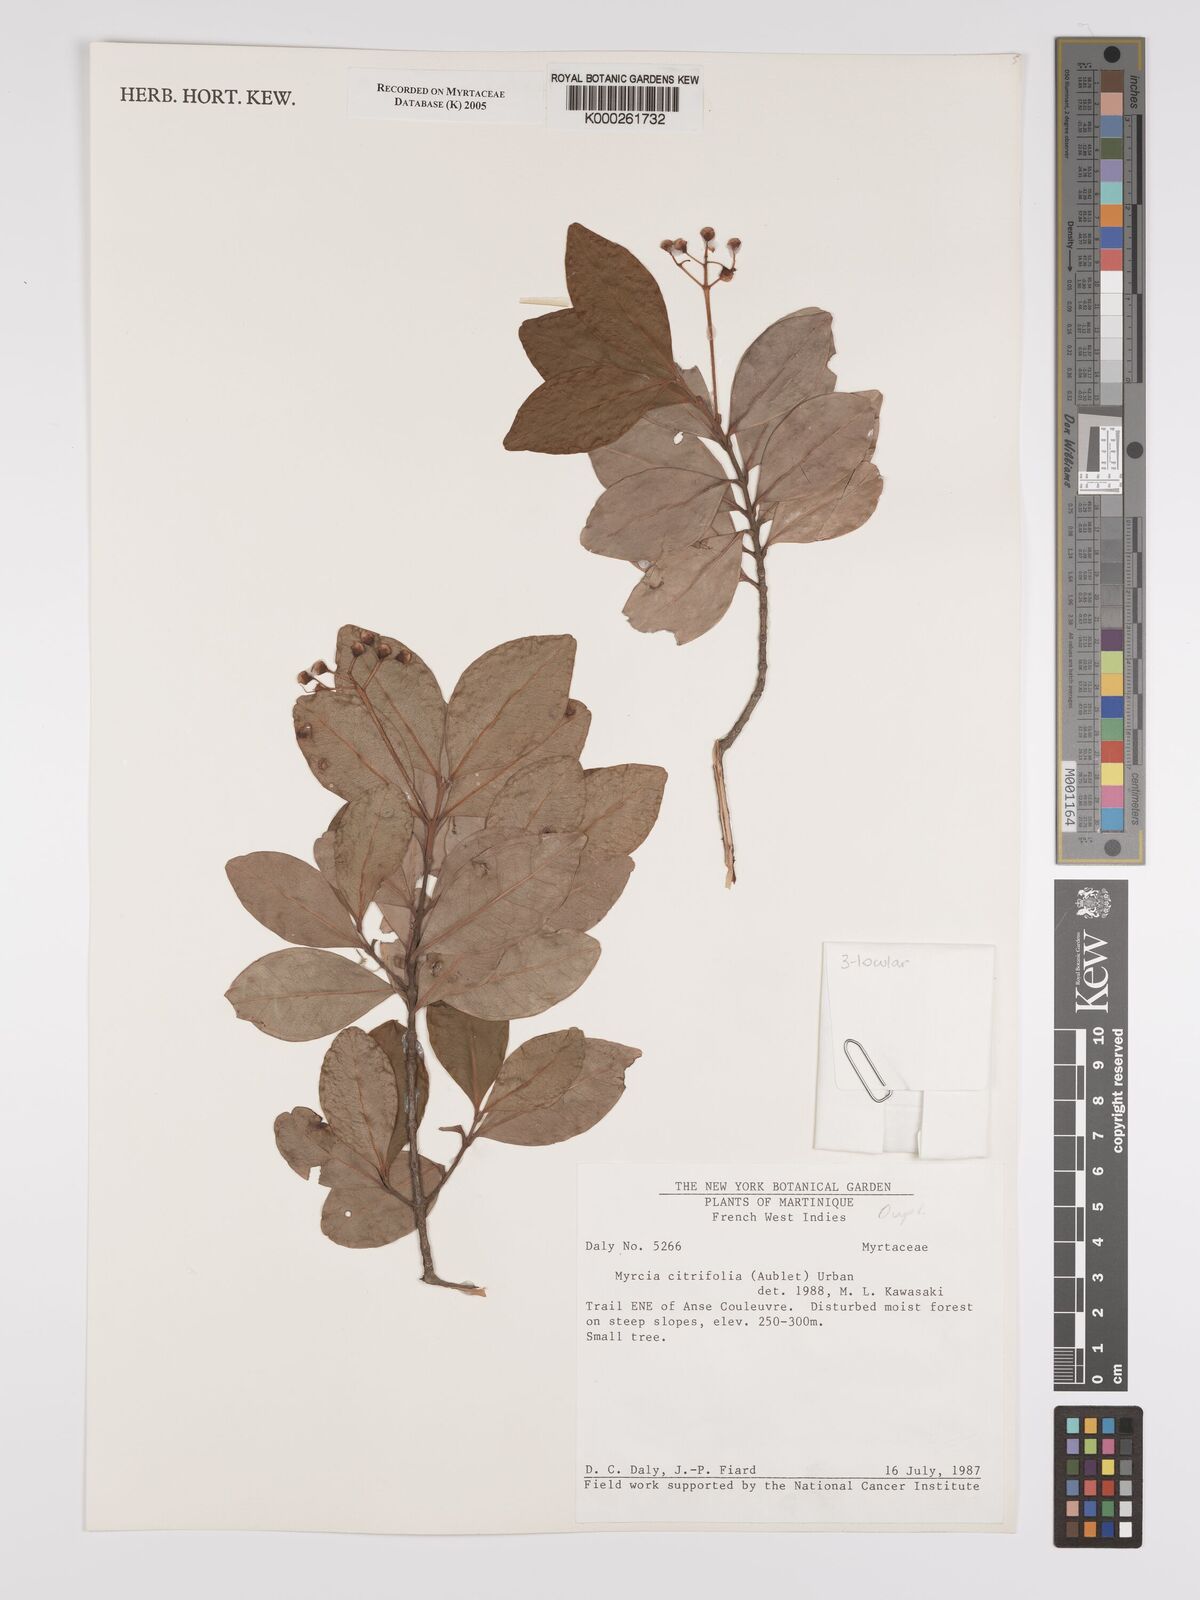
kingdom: Plantae
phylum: Tracheophyta
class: Magnoliopsida
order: Myrtales
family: Myrtaceae
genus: Myrcia
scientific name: Myrcia guianensis
